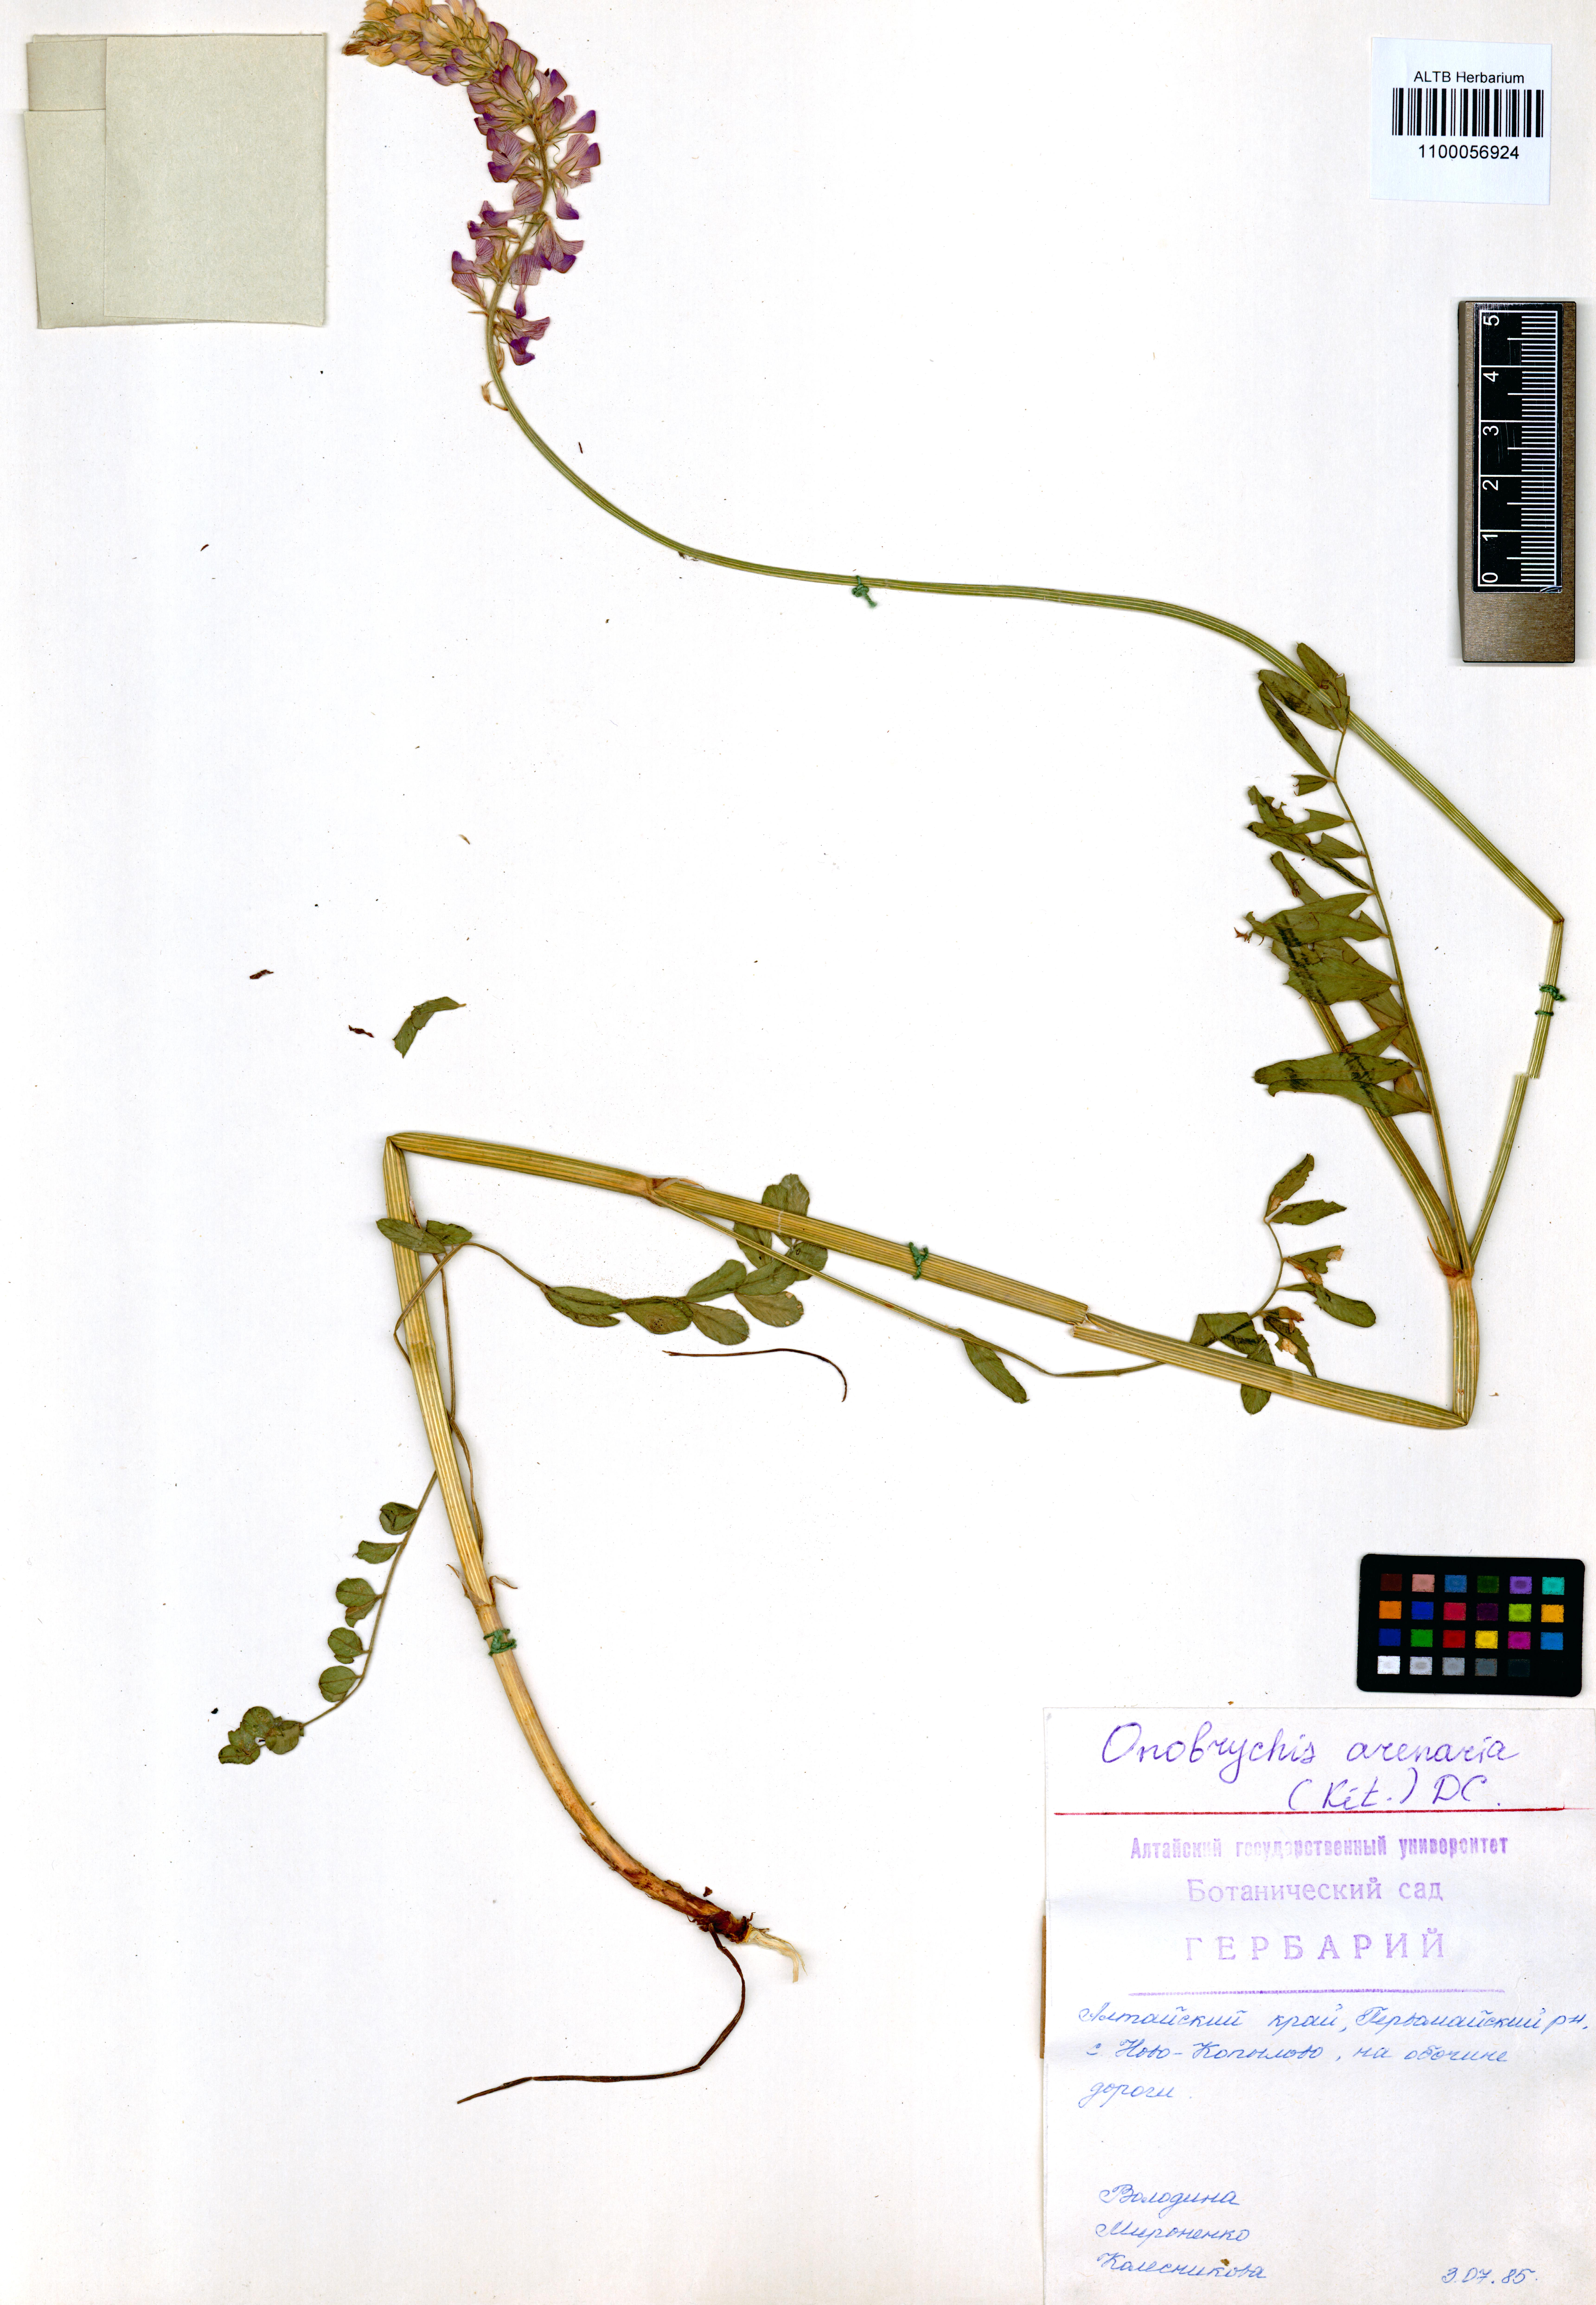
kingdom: Plantae
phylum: Tracheophyta
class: Magnoliopsida
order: Fabales
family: Fabaceae
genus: Onobrychis
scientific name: Onobrychis arenaria
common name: Sand esparcet
